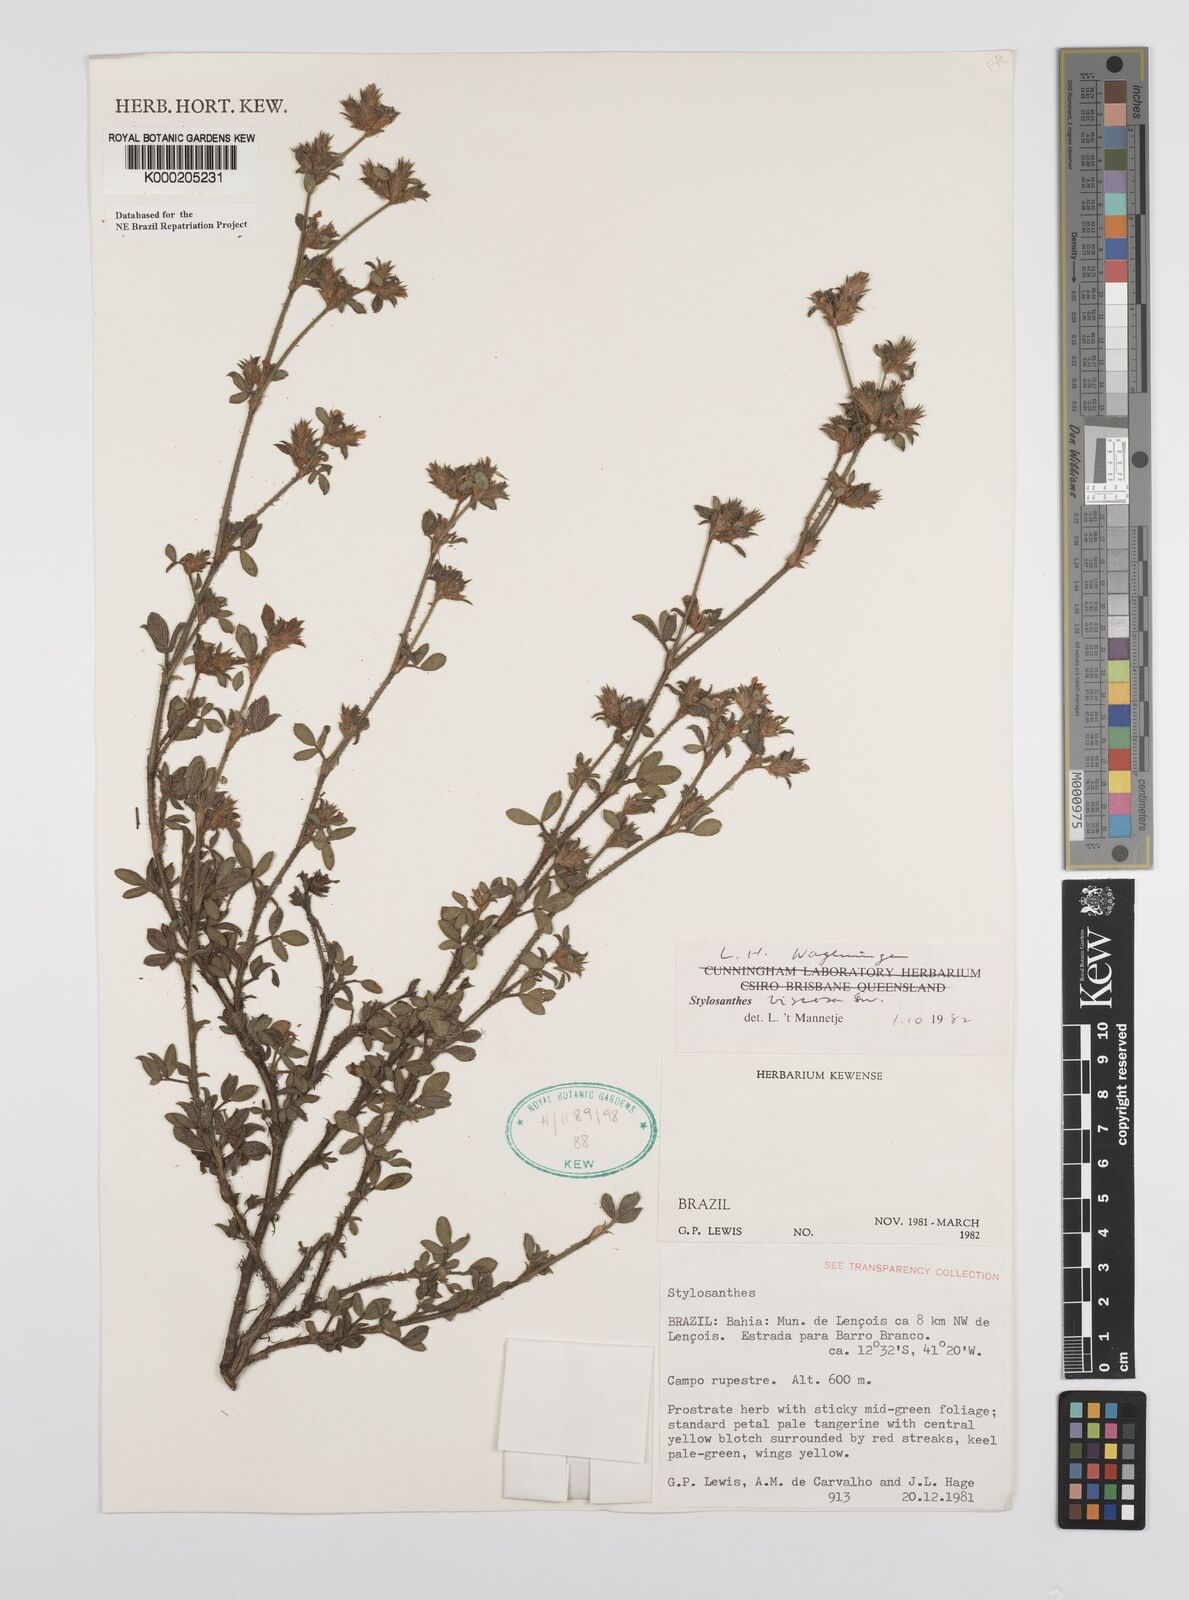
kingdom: Plantae
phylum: Tracheophyta
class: Magnoliopsida
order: Fabales
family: Fabaceae
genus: Stylosanthes
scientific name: Stylosanthes viscosa
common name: Viscid pencil-flower
